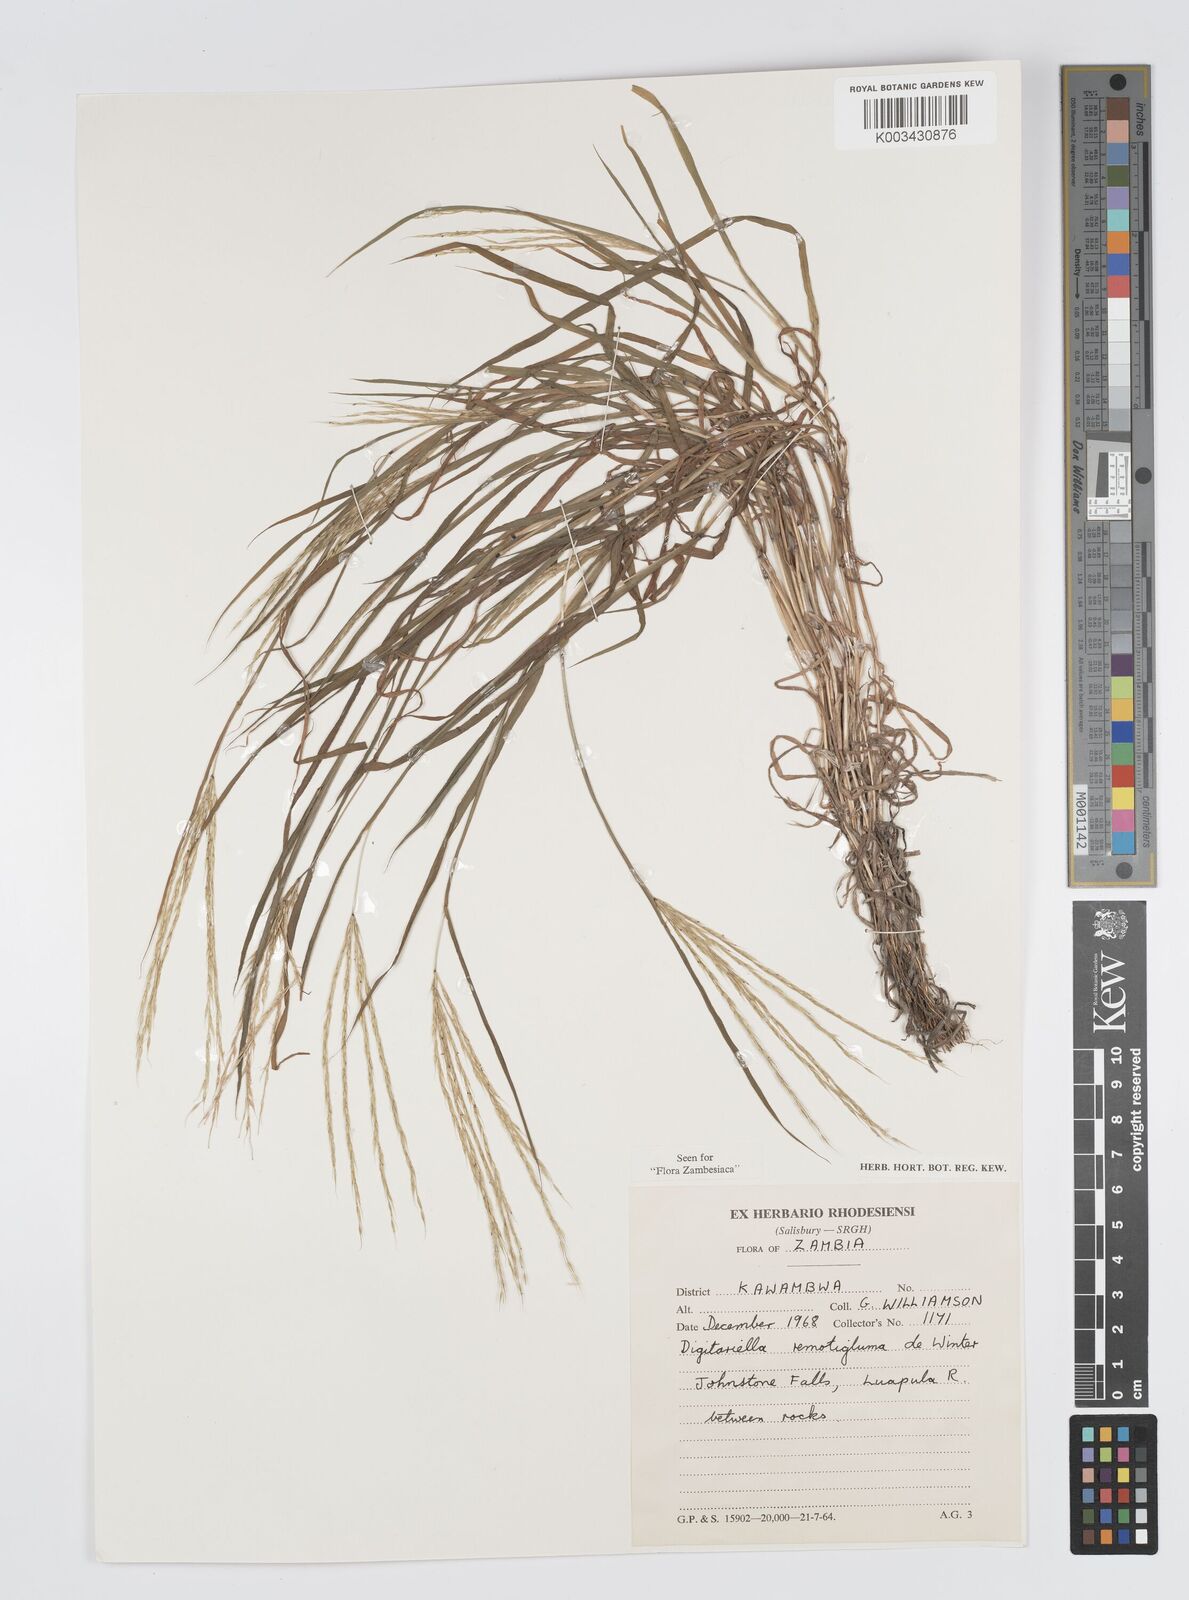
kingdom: Plantae
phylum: Tracheophyta
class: Liliopsida
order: Poales
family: Poaceae
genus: Digitaria
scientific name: Digitaria remotigluma
